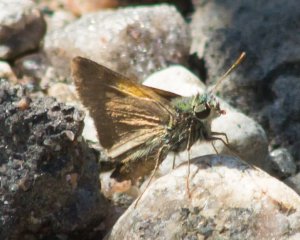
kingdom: Animalia
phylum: Arthropoda
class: Insecta
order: Lepidoptera
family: Hesperiidae
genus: Polites
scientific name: Polites themistocles
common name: Tawny-edged Skipper
